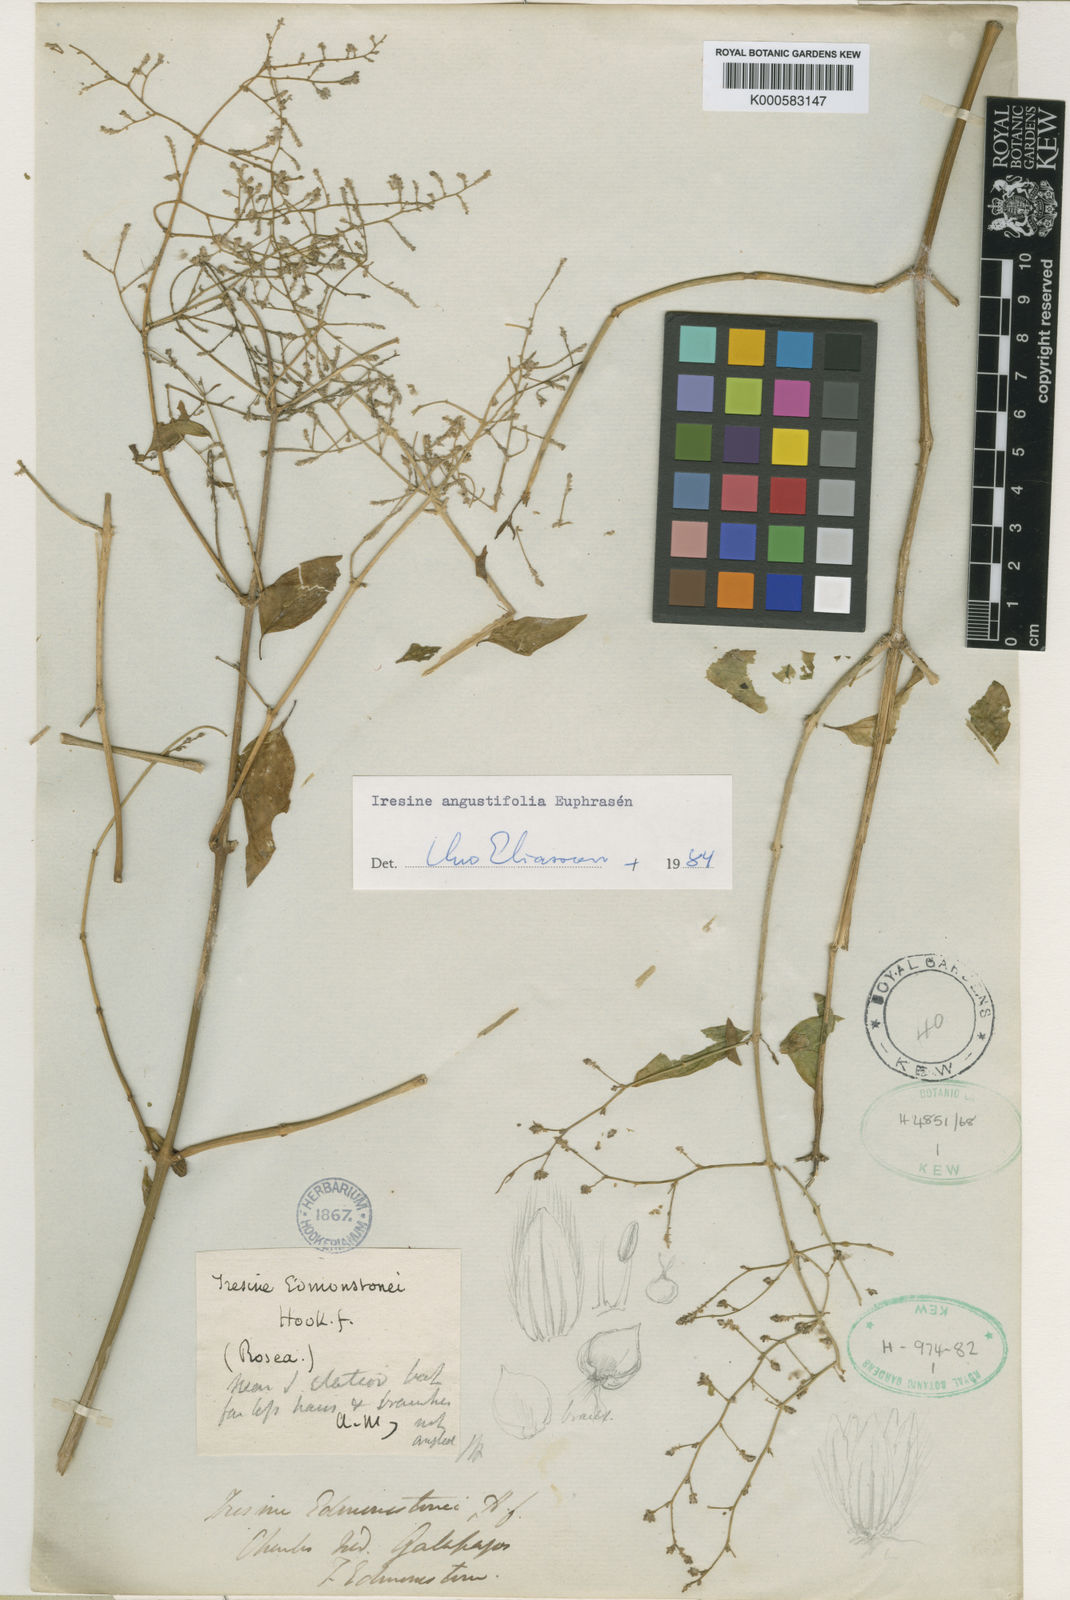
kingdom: Plantae
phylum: Tracheophyta
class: Magnoliopsida
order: Caryophyllales
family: Amaranthaceae
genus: Pedersenia
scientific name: Pedersenia argentata
